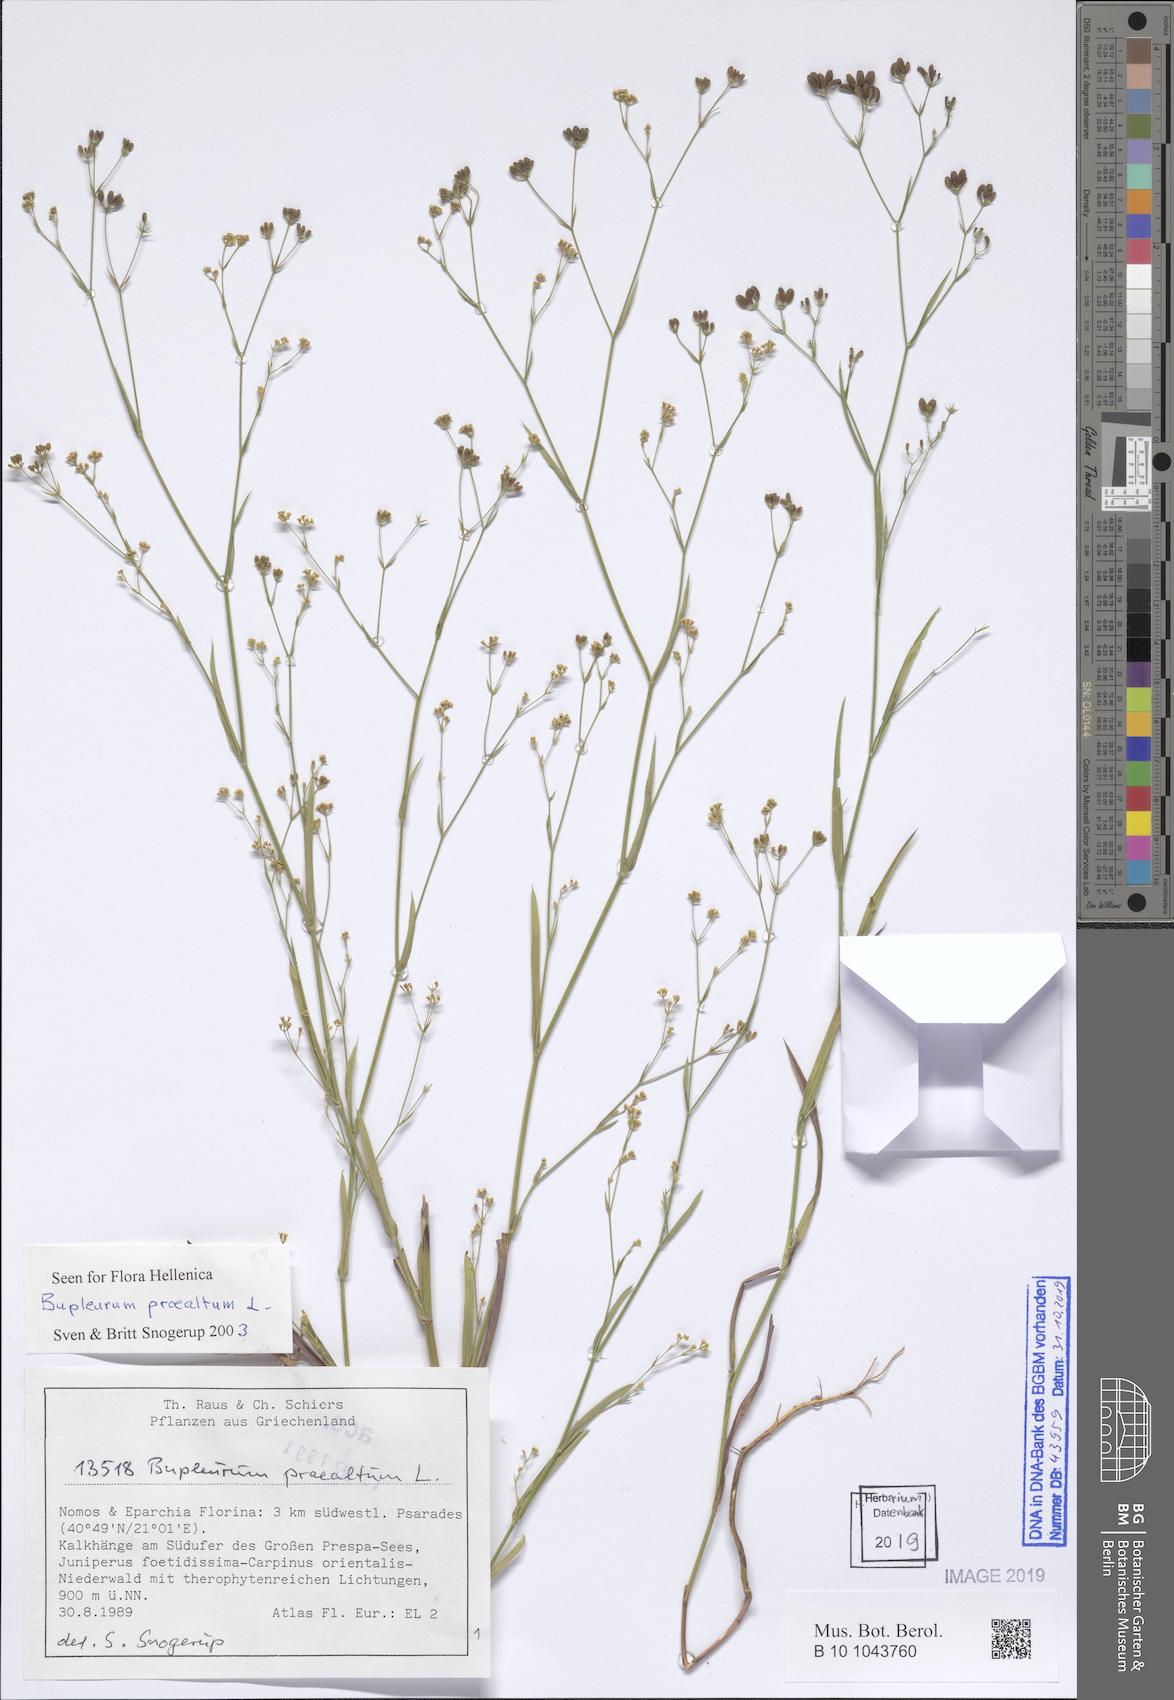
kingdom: Plantae
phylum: Tracheophyta
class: Magnoliopsida
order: Apiales
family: Apiaceae
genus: Bupleurum
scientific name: Bupleurum praealtum
